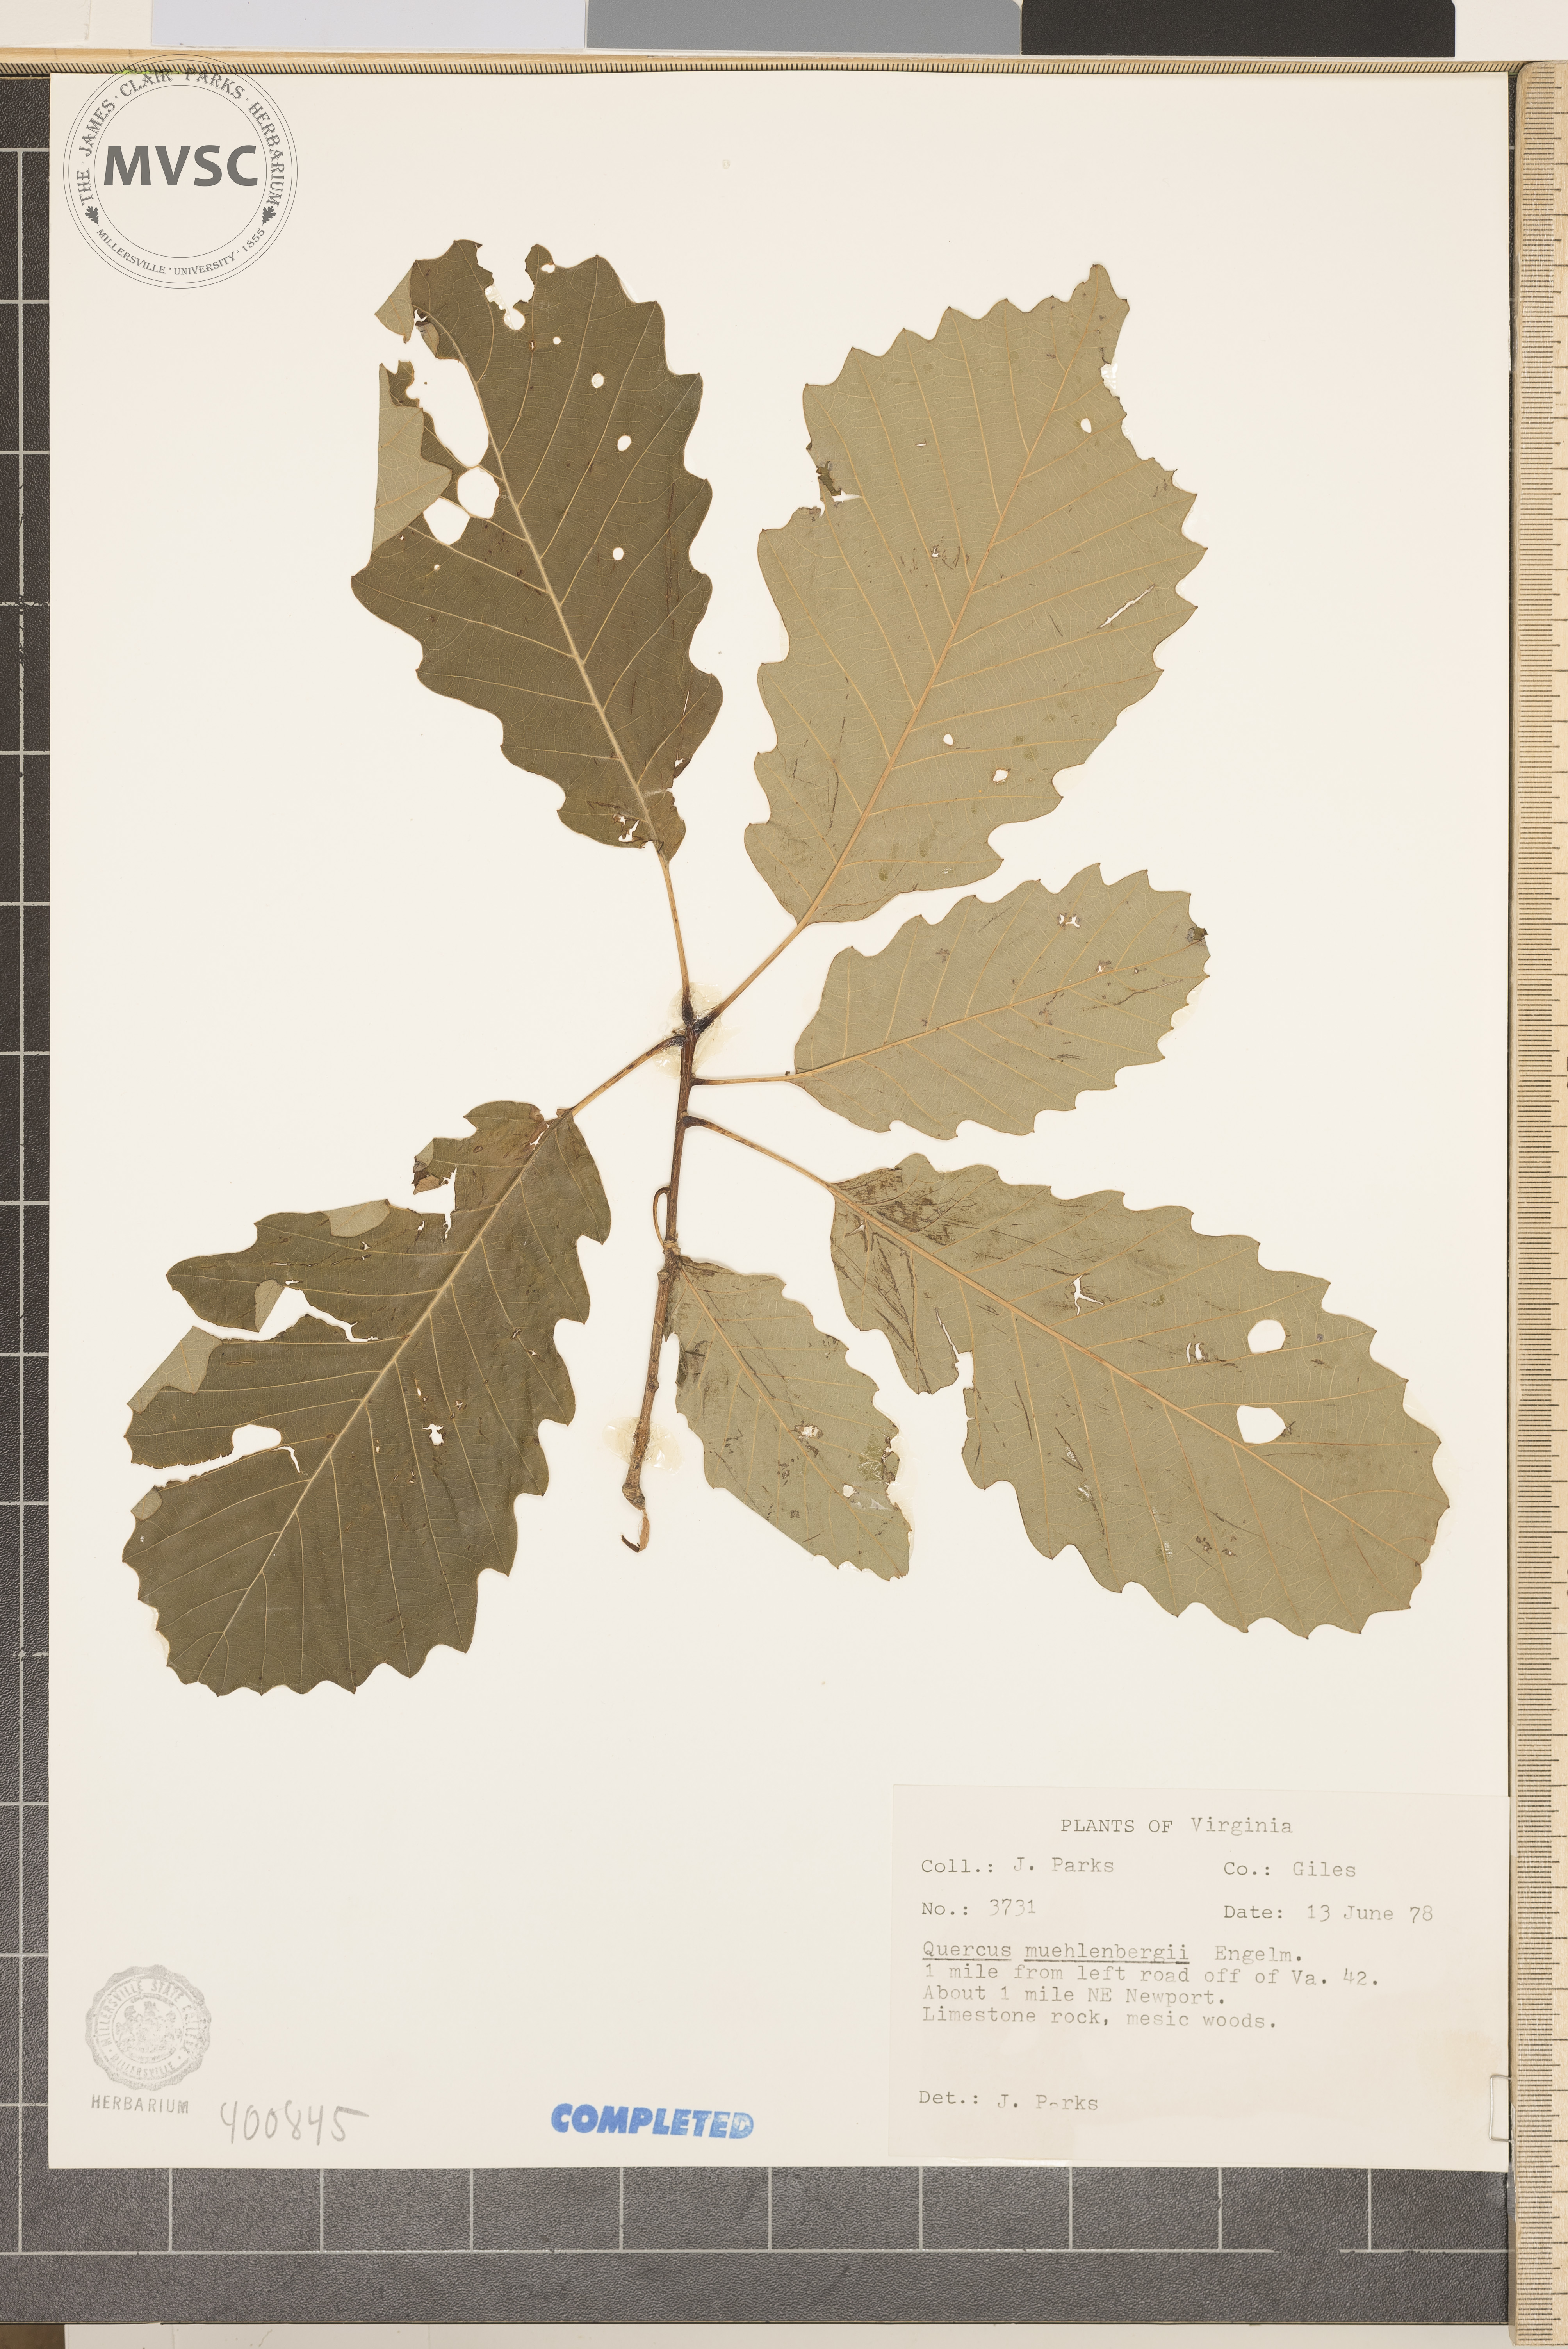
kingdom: Plantae
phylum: Tracheophyta
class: Magnoliopsida
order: Fagales
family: Fagaceae
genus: Quercus
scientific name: Quercus muehlenbergii
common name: Chinkapin Oak
